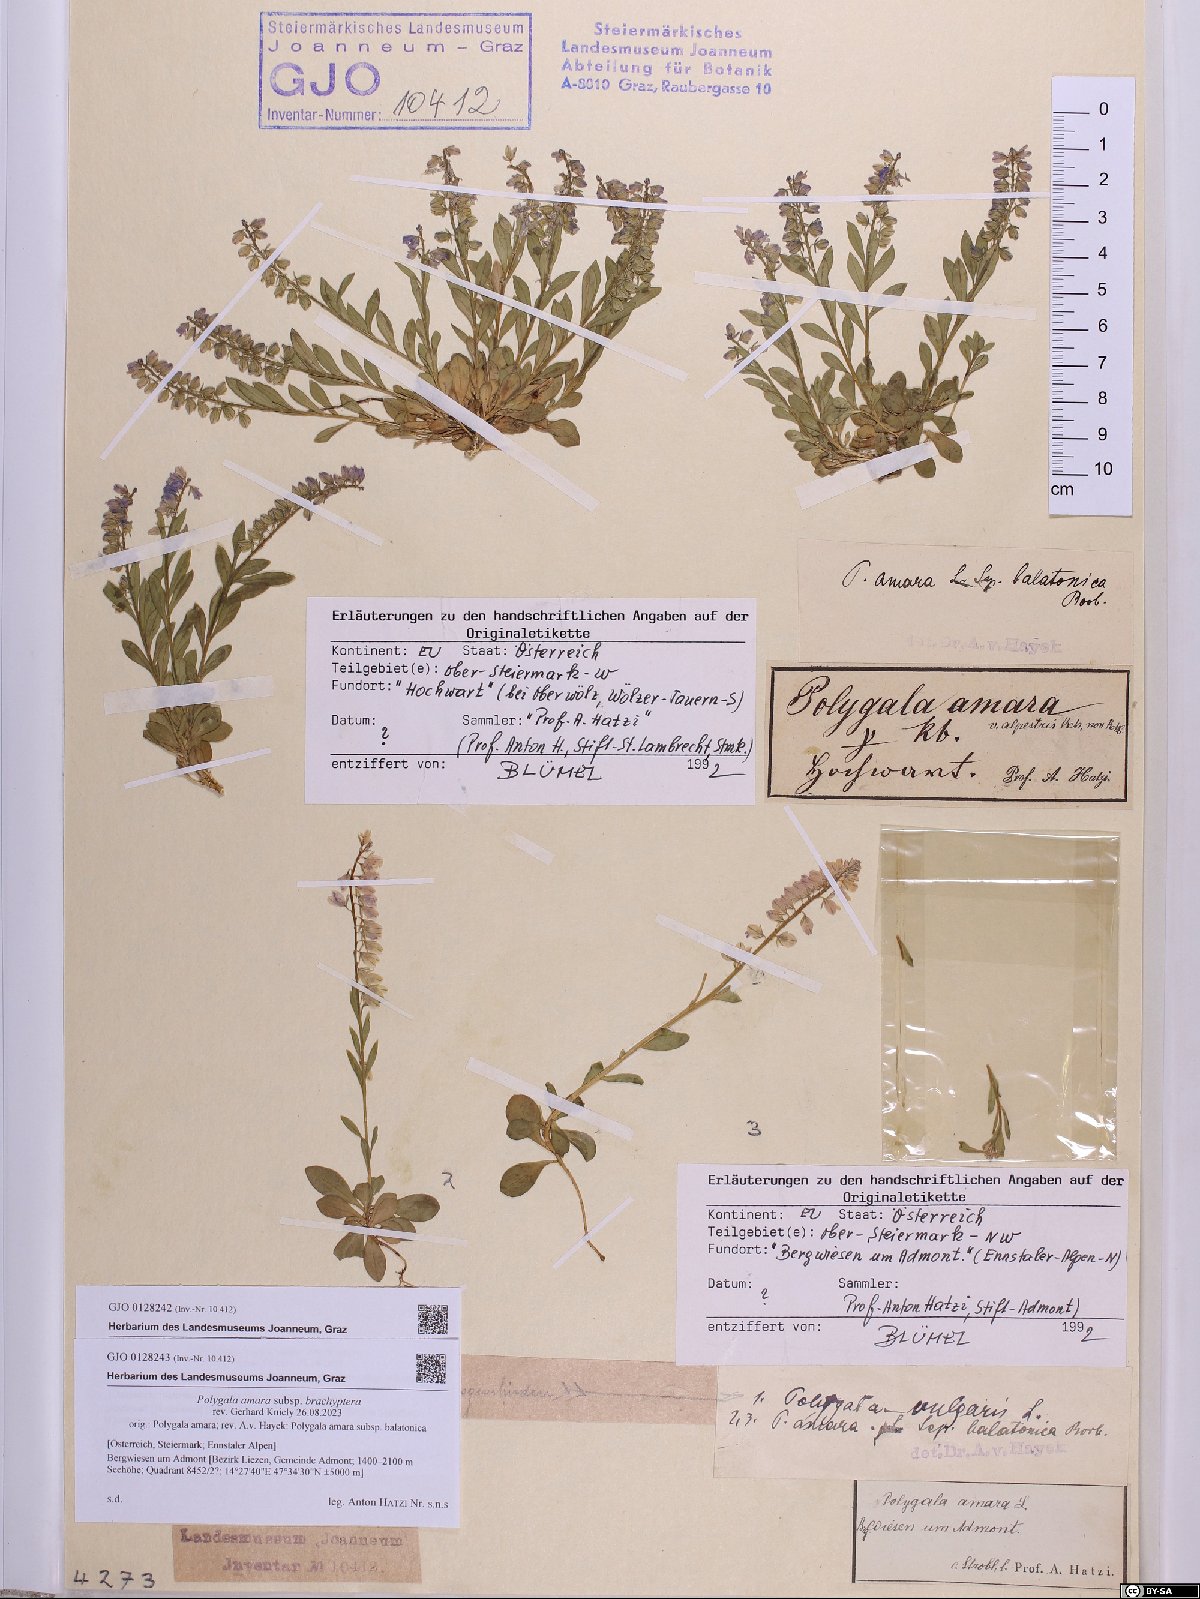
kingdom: Plantae
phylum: Tracheophyta
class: Magnoliopsida
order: Fabales
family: Polygalaceae
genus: Polygala
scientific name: Polygala amara
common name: Milkwort
